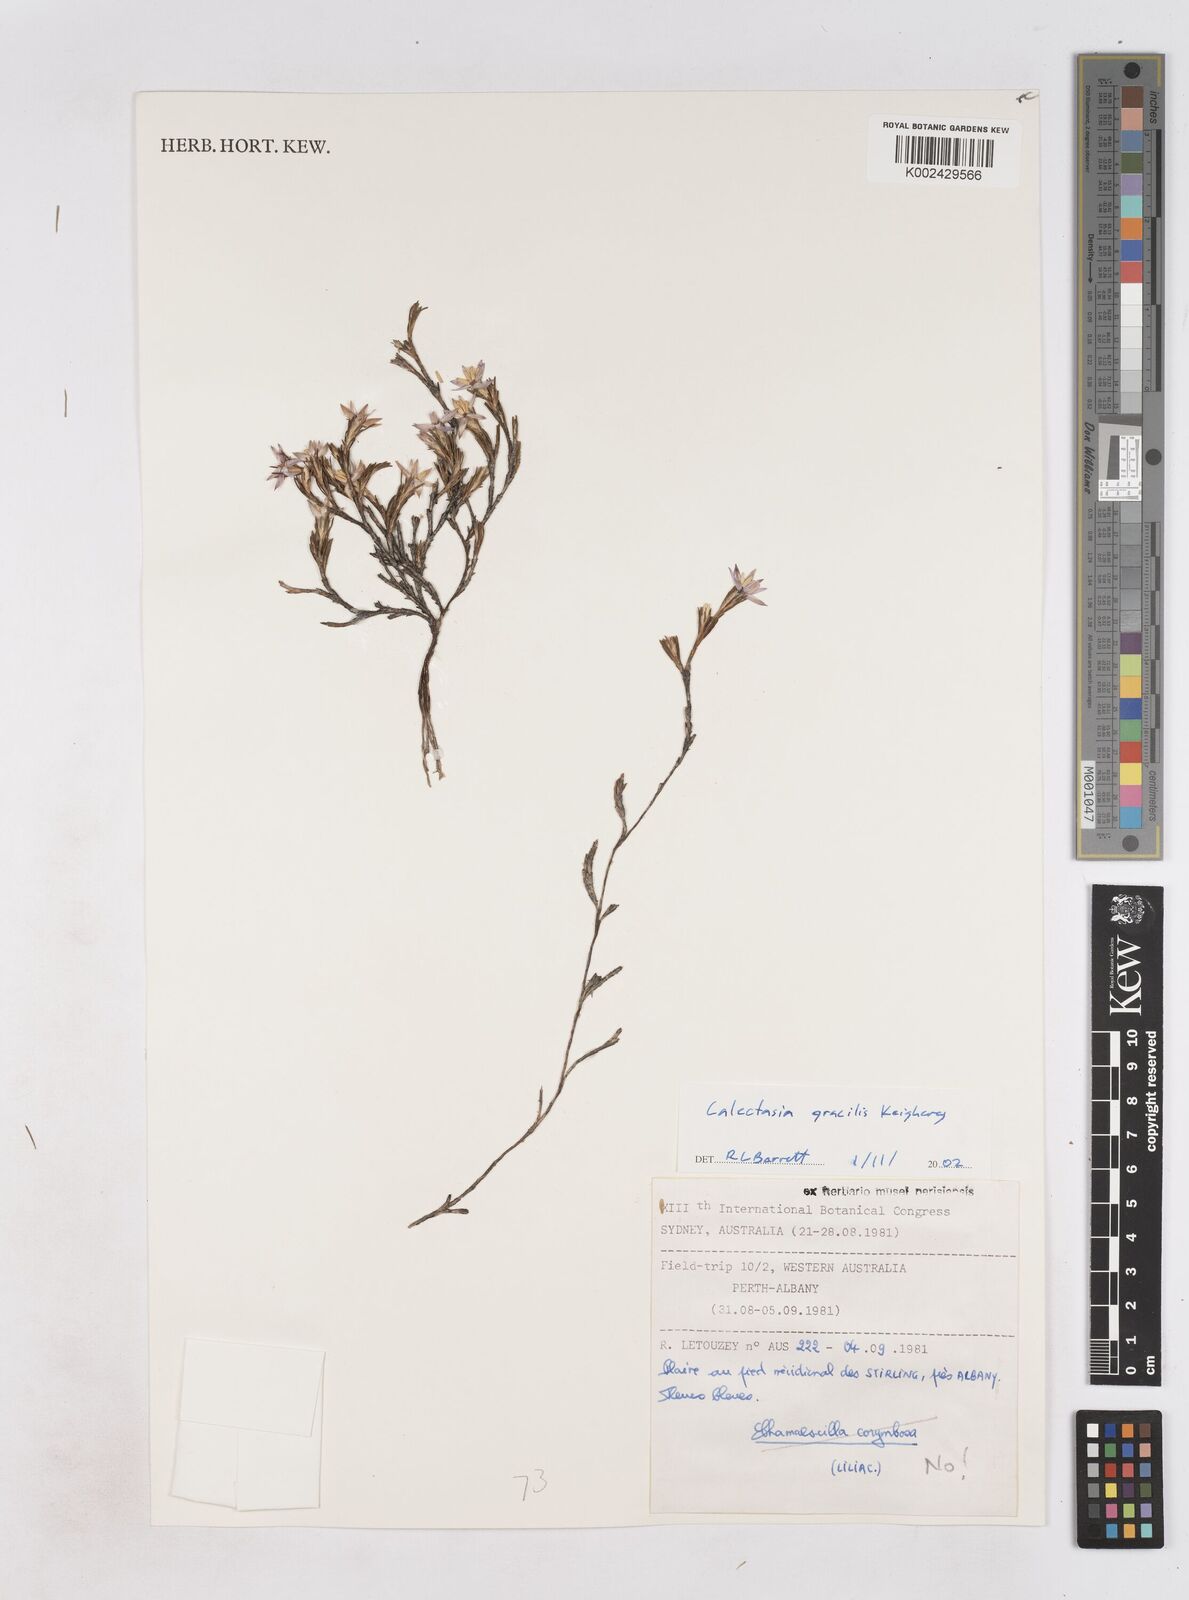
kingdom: Plantae
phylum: Tracheophyta
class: Liliopsida
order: Arecales
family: Dasypogonaceae
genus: Calectasia
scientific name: Calectasia gracilis
